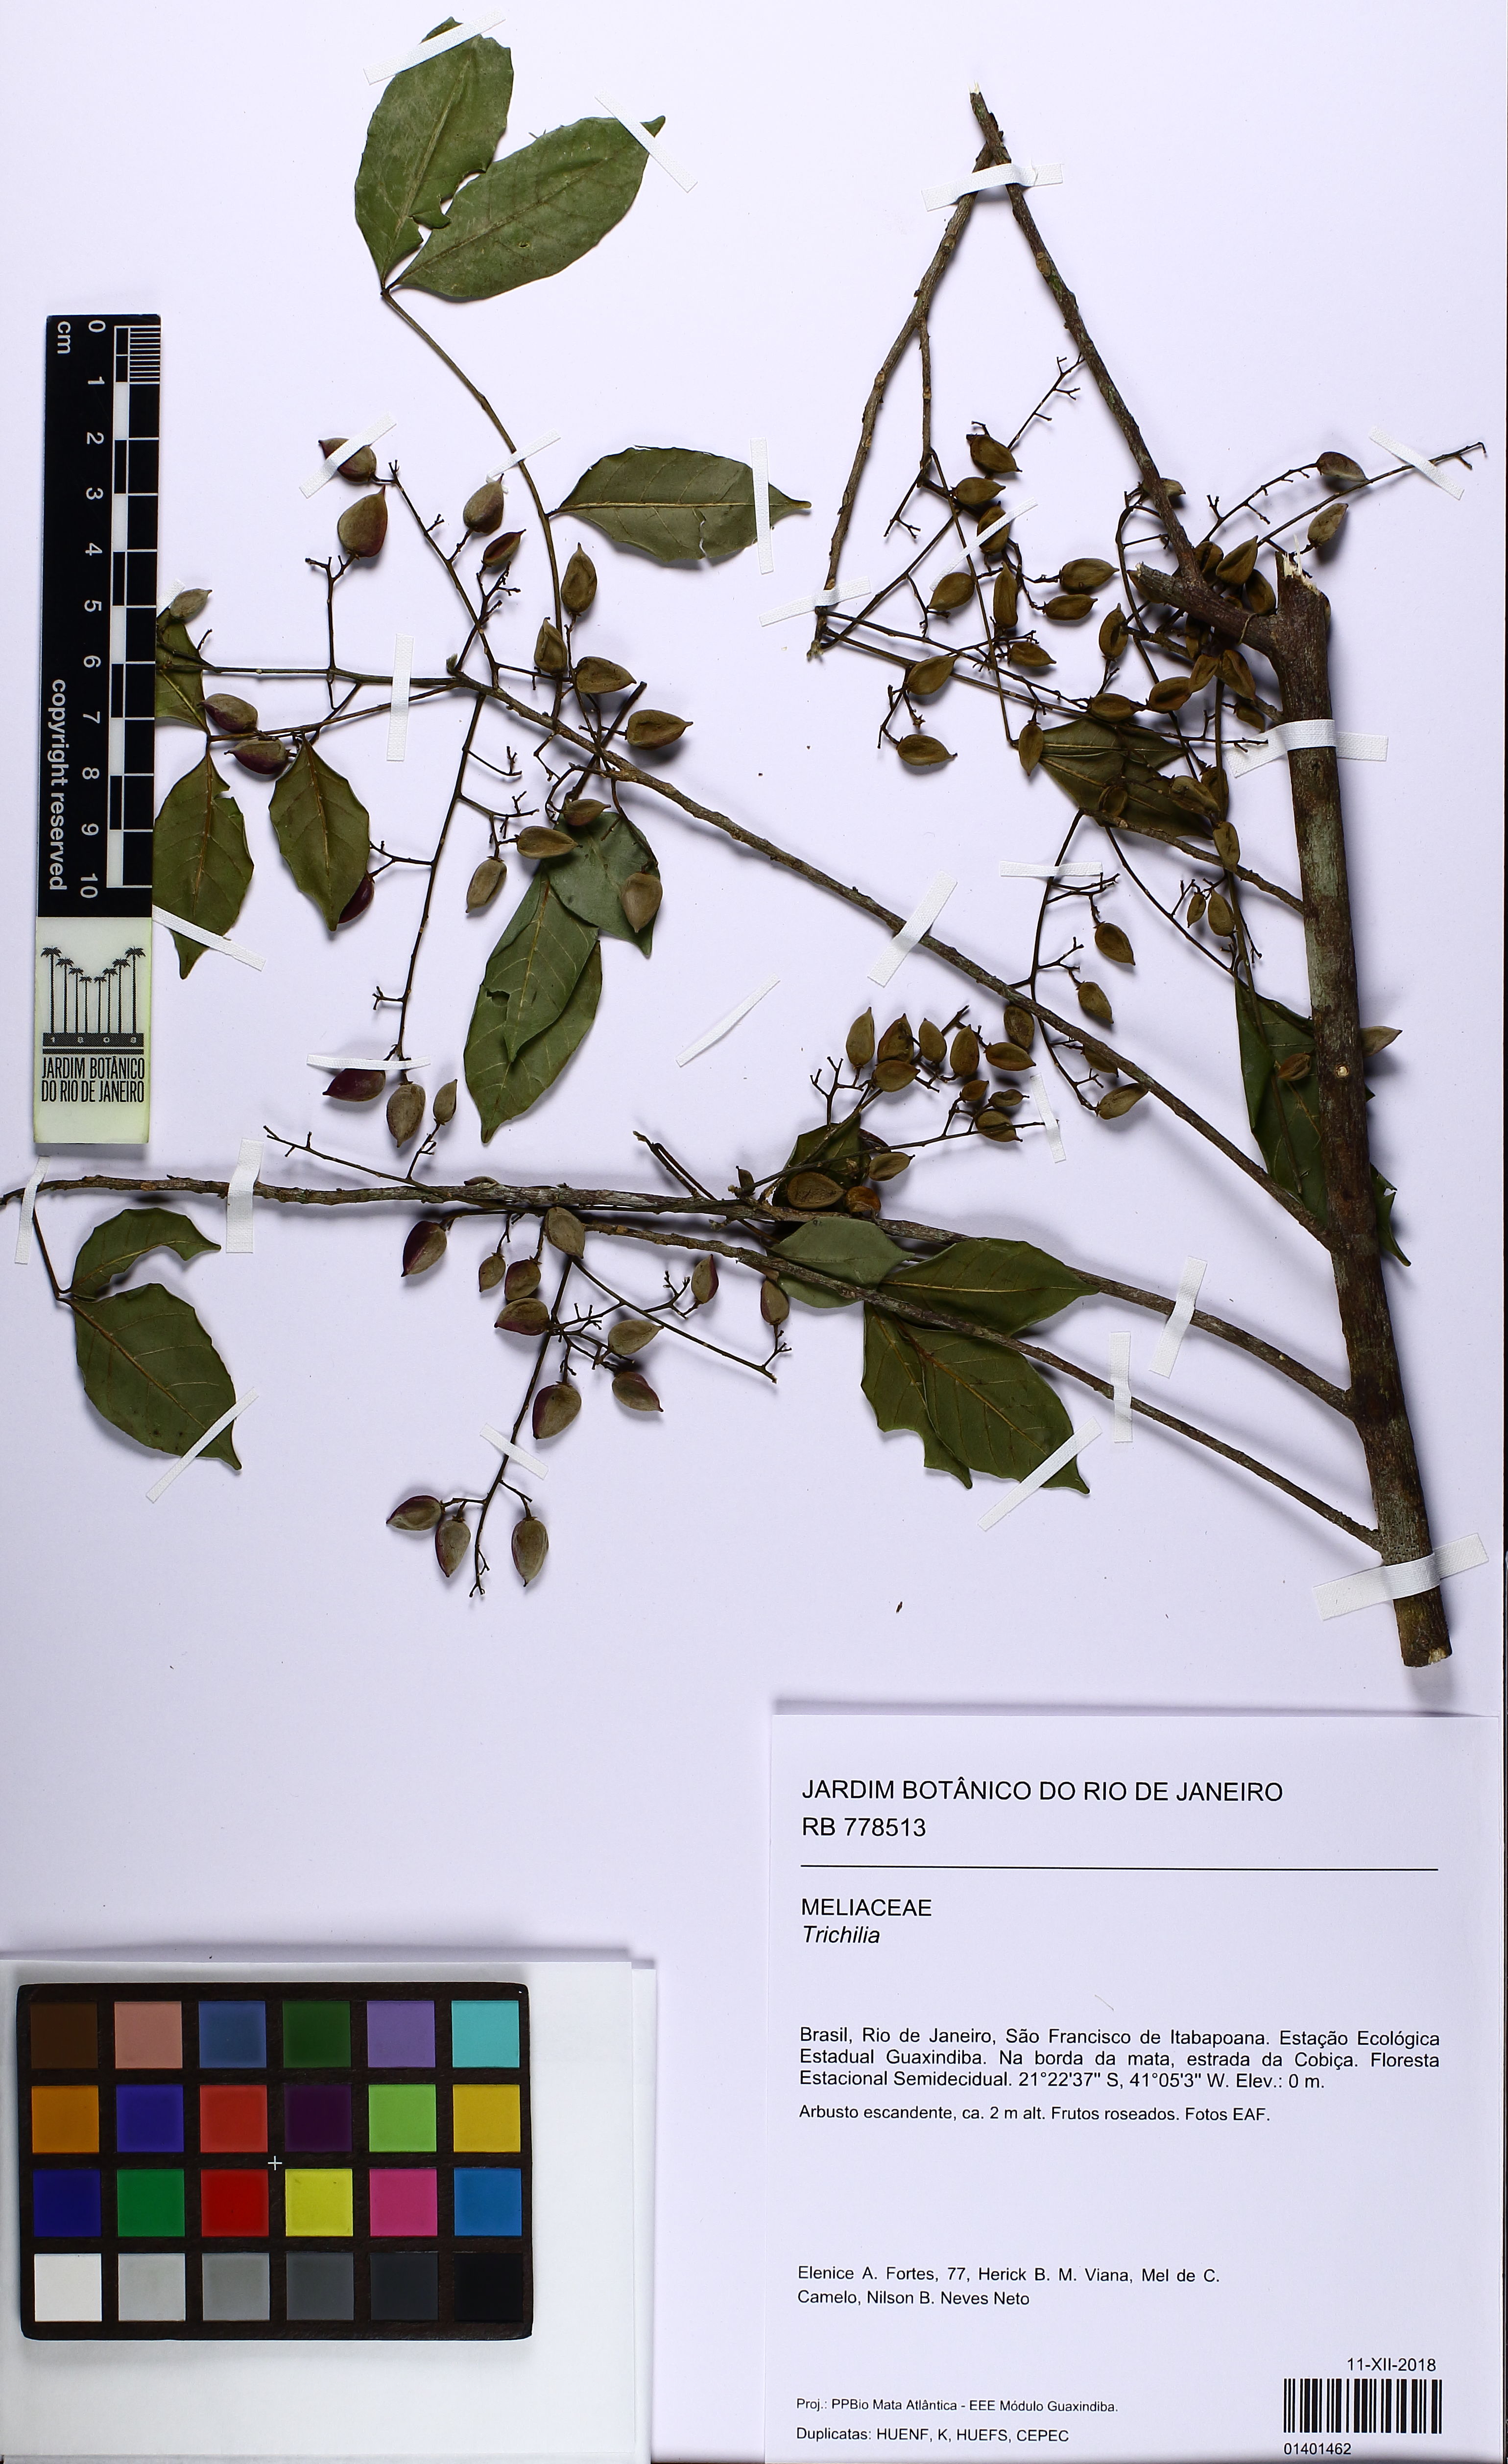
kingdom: Plantae
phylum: Tracheophyta
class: Magnoliopsida
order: Sapindales
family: Meliaceae
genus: Trichilia
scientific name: Trichilia
